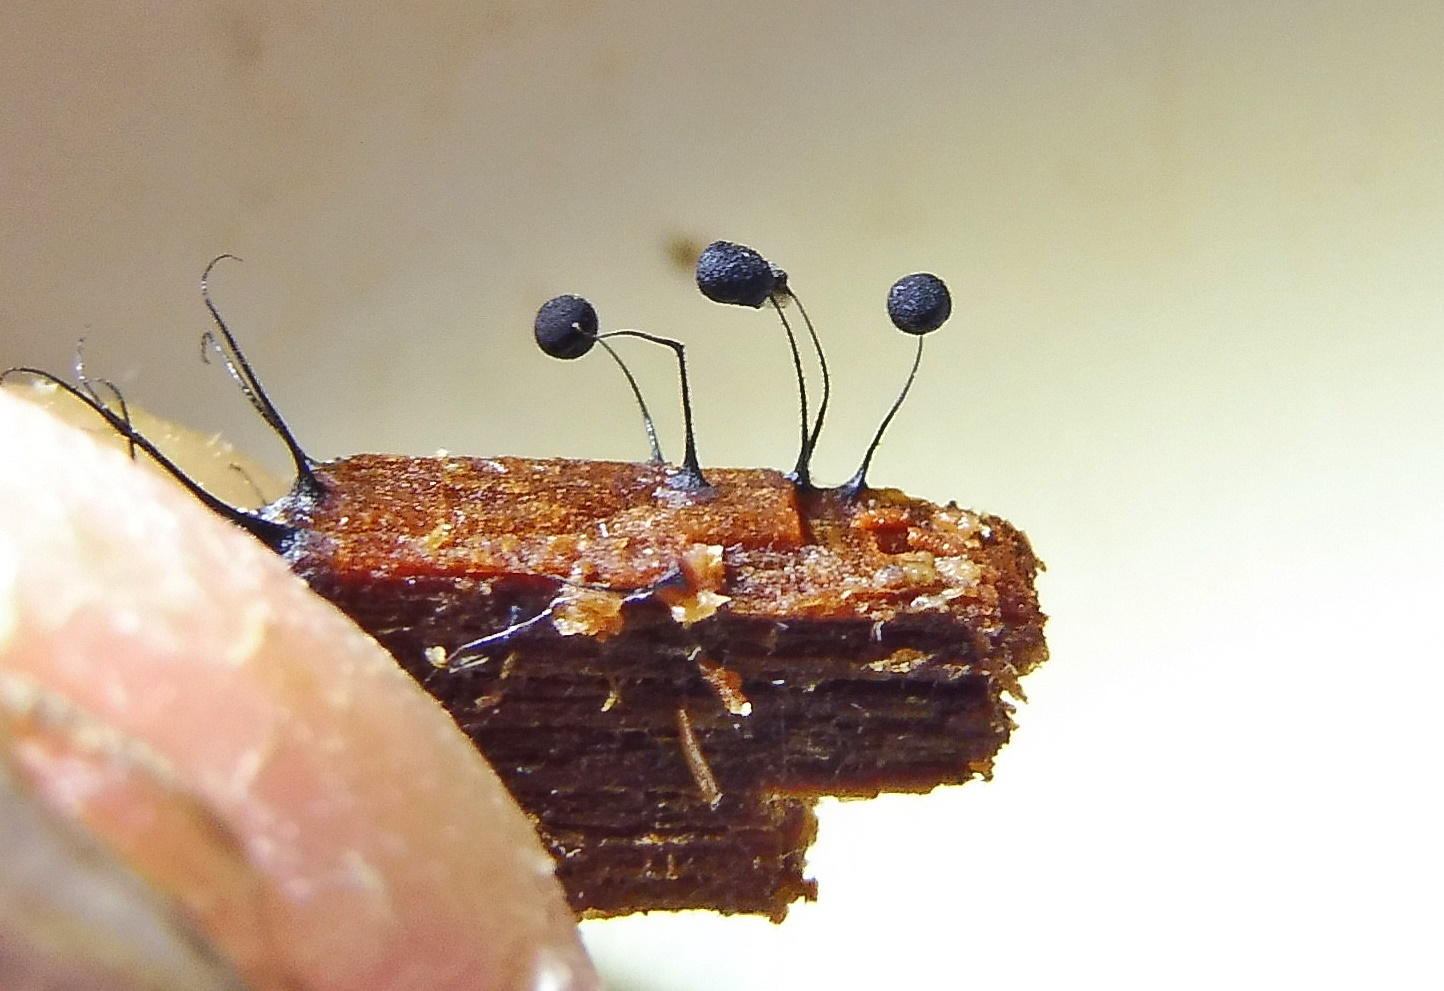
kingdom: Protozoa
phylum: Mycetozoa
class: Myxomycetes
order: Stemonitidales
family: Stemonitidaceae
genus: Comatricha
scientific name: Comatricha nigra
